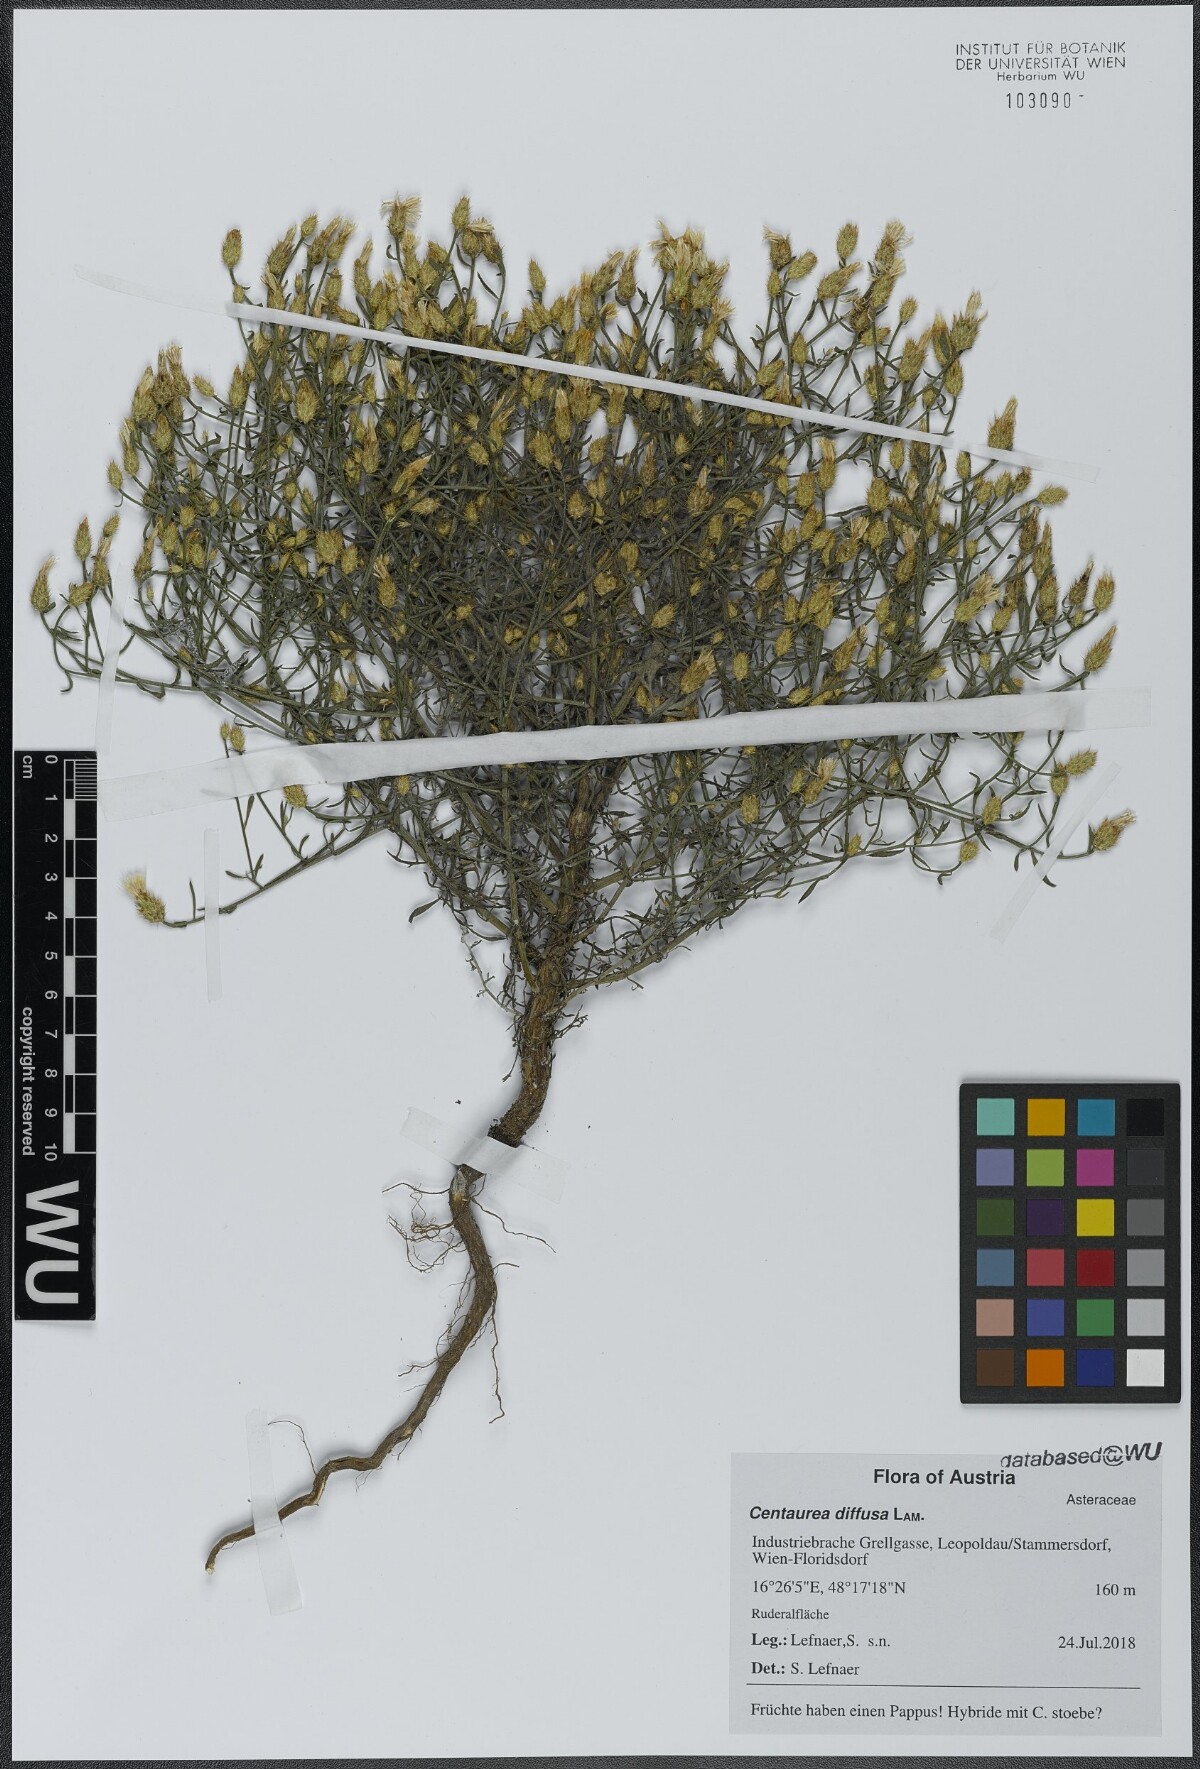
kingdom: Plantae
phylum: Tracheophyta
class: Magnoliopsida
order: Asterales
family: Asteraceae
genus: Centaurea
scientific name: Centaurea diffusa
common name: Diffuse knapweed
